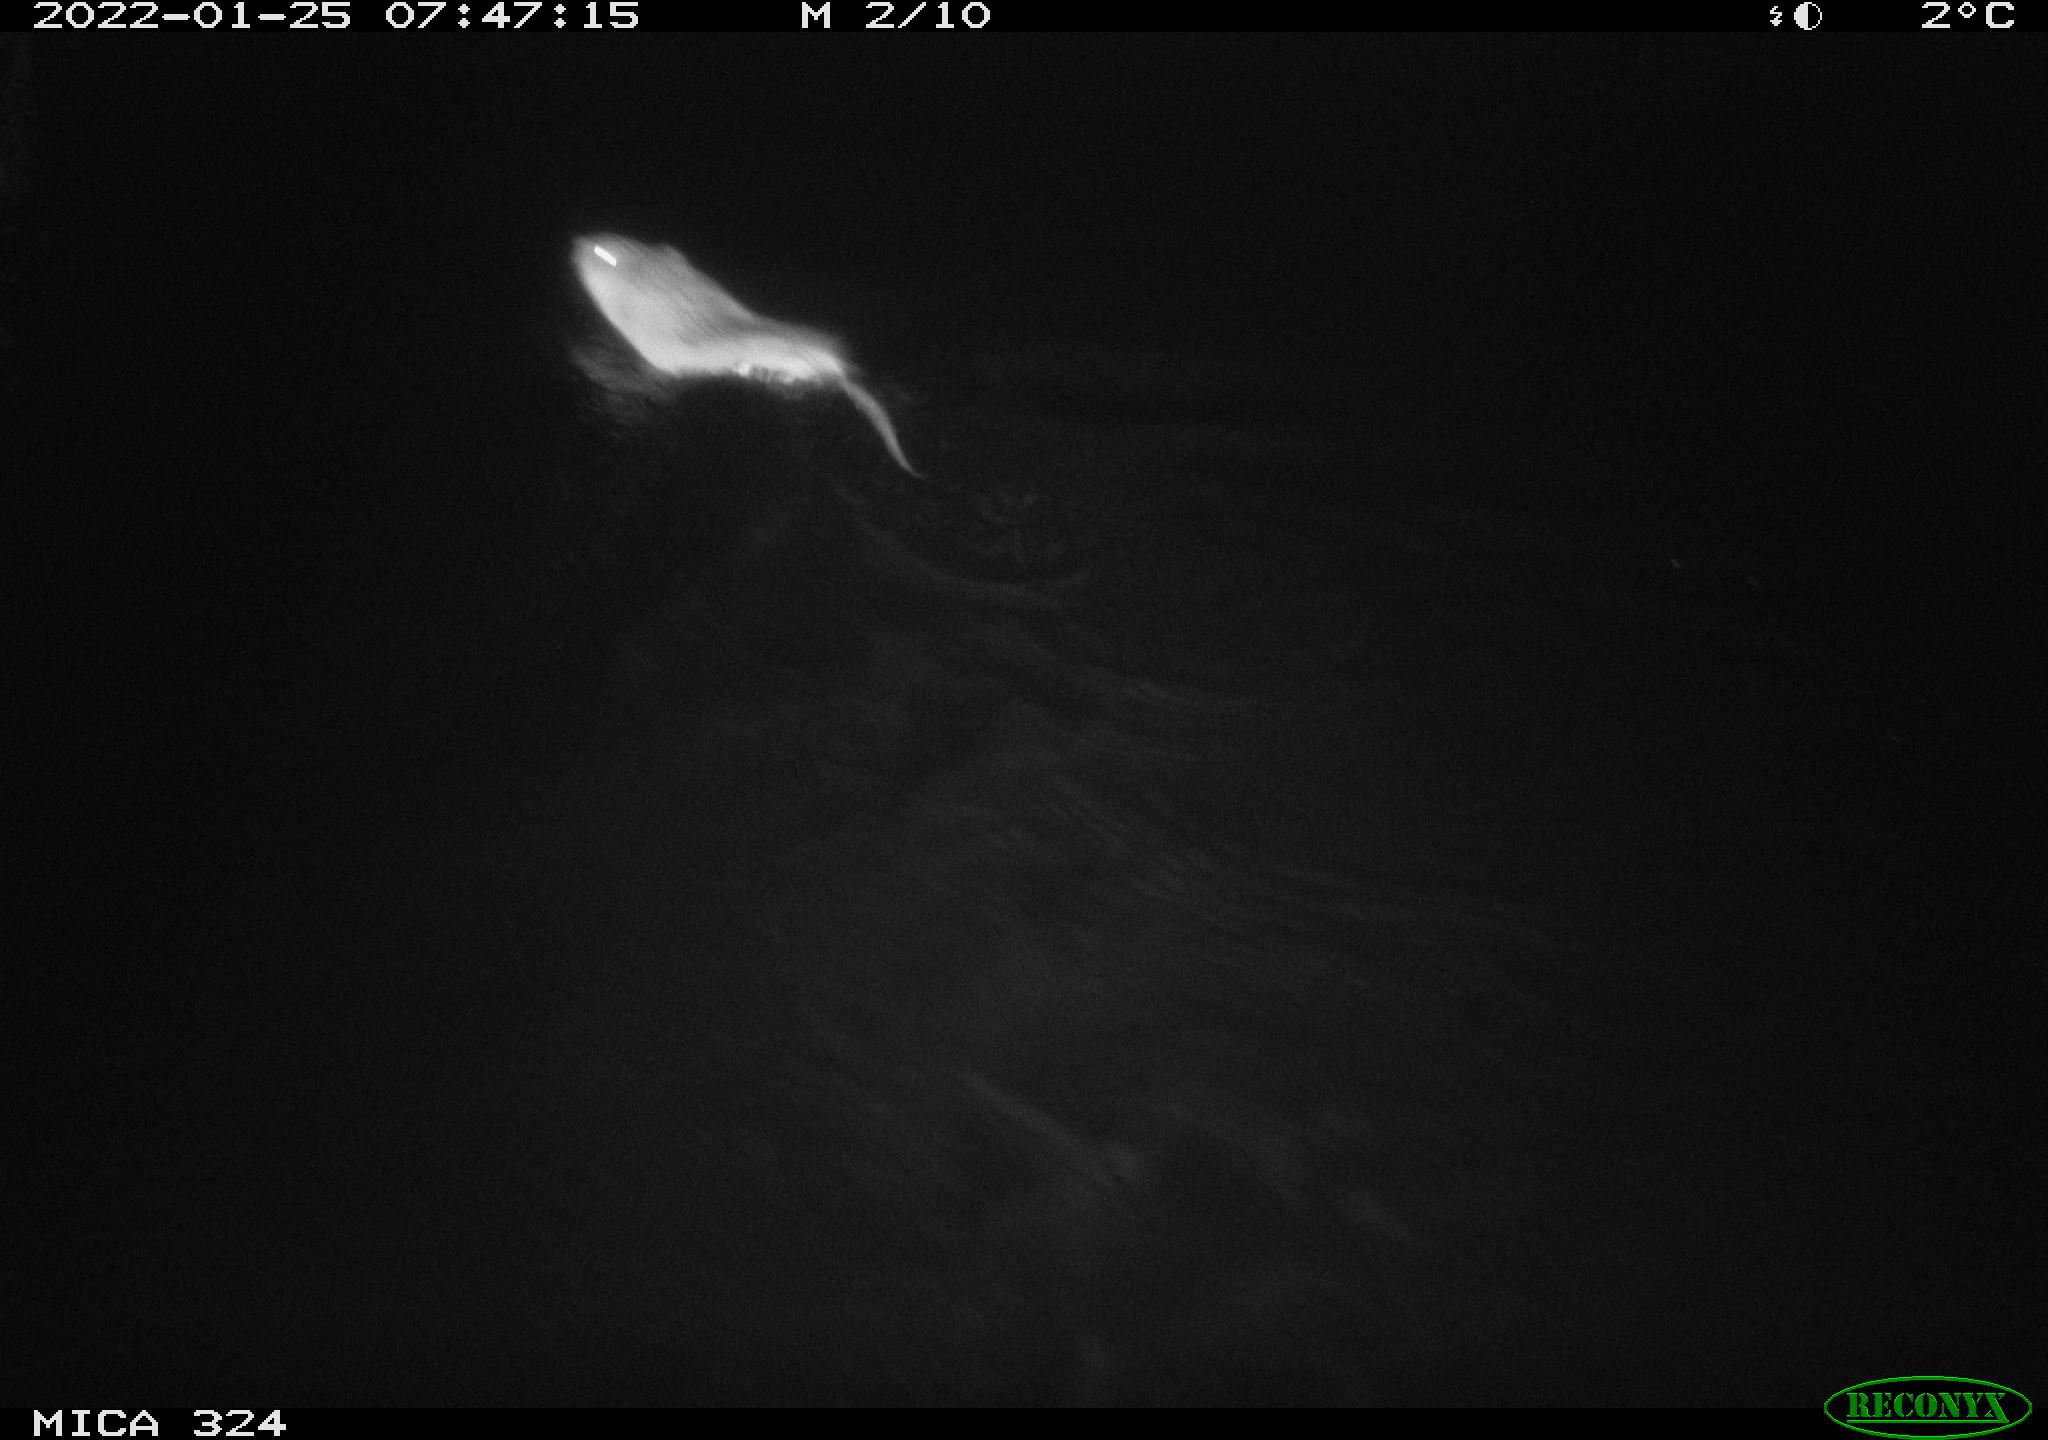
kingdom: Animalia
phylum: Chordata
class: Mammalia
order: Rodentia
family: Cricetidae
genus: Ondatra
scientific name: Ondatra zibethicus
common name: Muskrat
